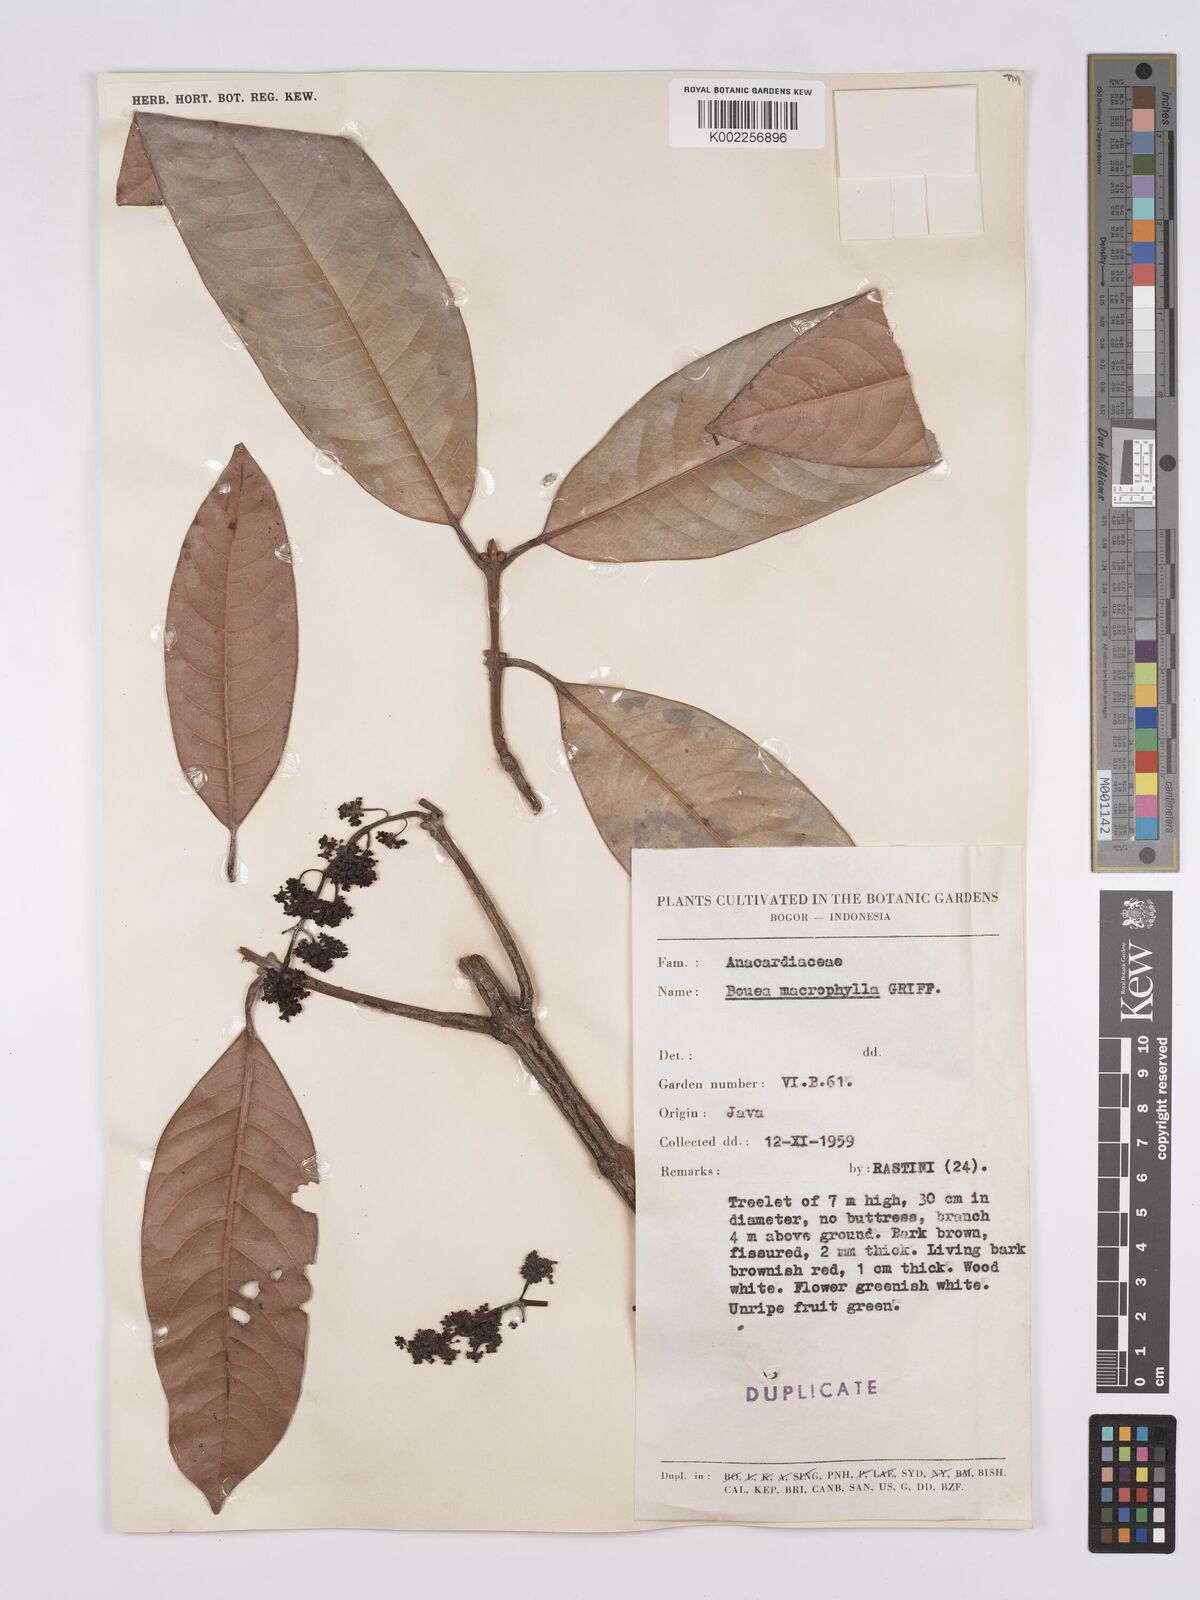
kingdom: Plantae
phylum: Tracheophyta
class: Magnoliopsida
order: Sapindales
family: Anacardiaceae
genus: Bouea
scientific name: Bouea macrophylla
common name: Gandaria
